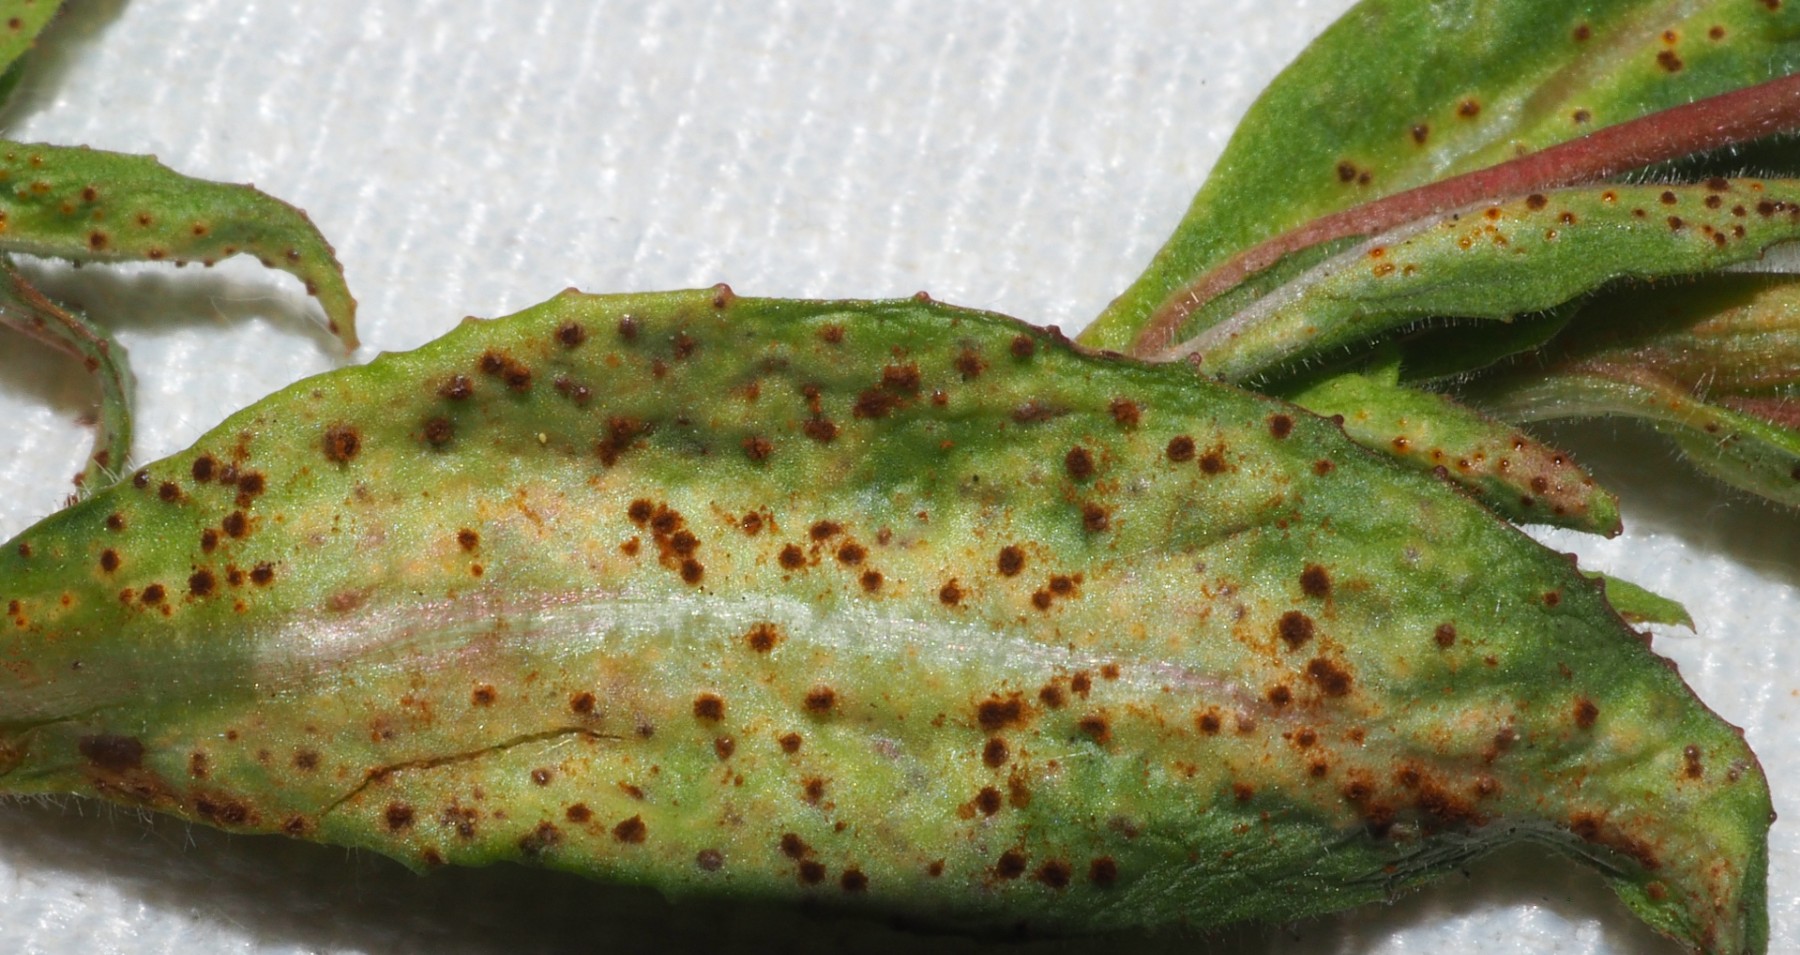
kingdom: Fungi
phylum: Basidiomycota
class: Pucciniomycetes
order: Pucciniales
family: Pucciniaceae
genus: Puccinia
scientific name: Puccinia epilobii
